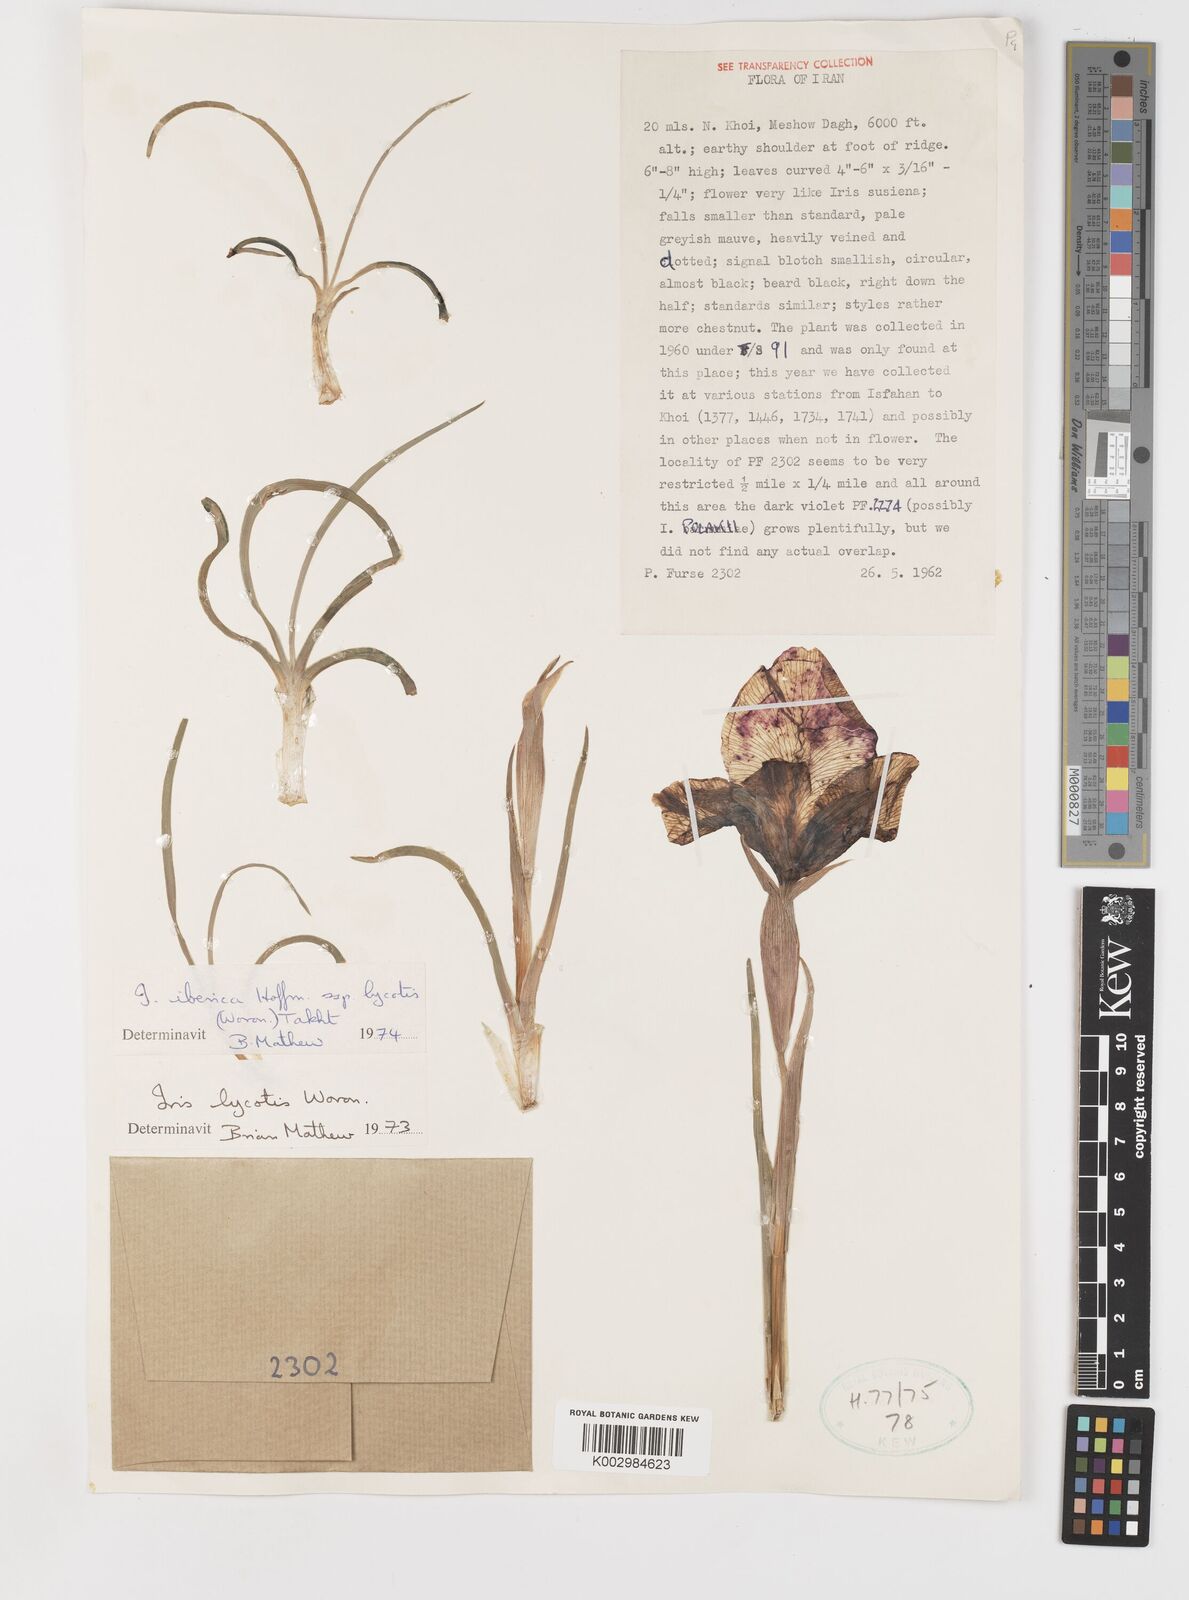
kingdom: Plantae
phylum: Tracheophyta
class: Liliopsida
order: Asparagales
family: Iridaceae
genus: Iris
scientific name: Iris lycotis
